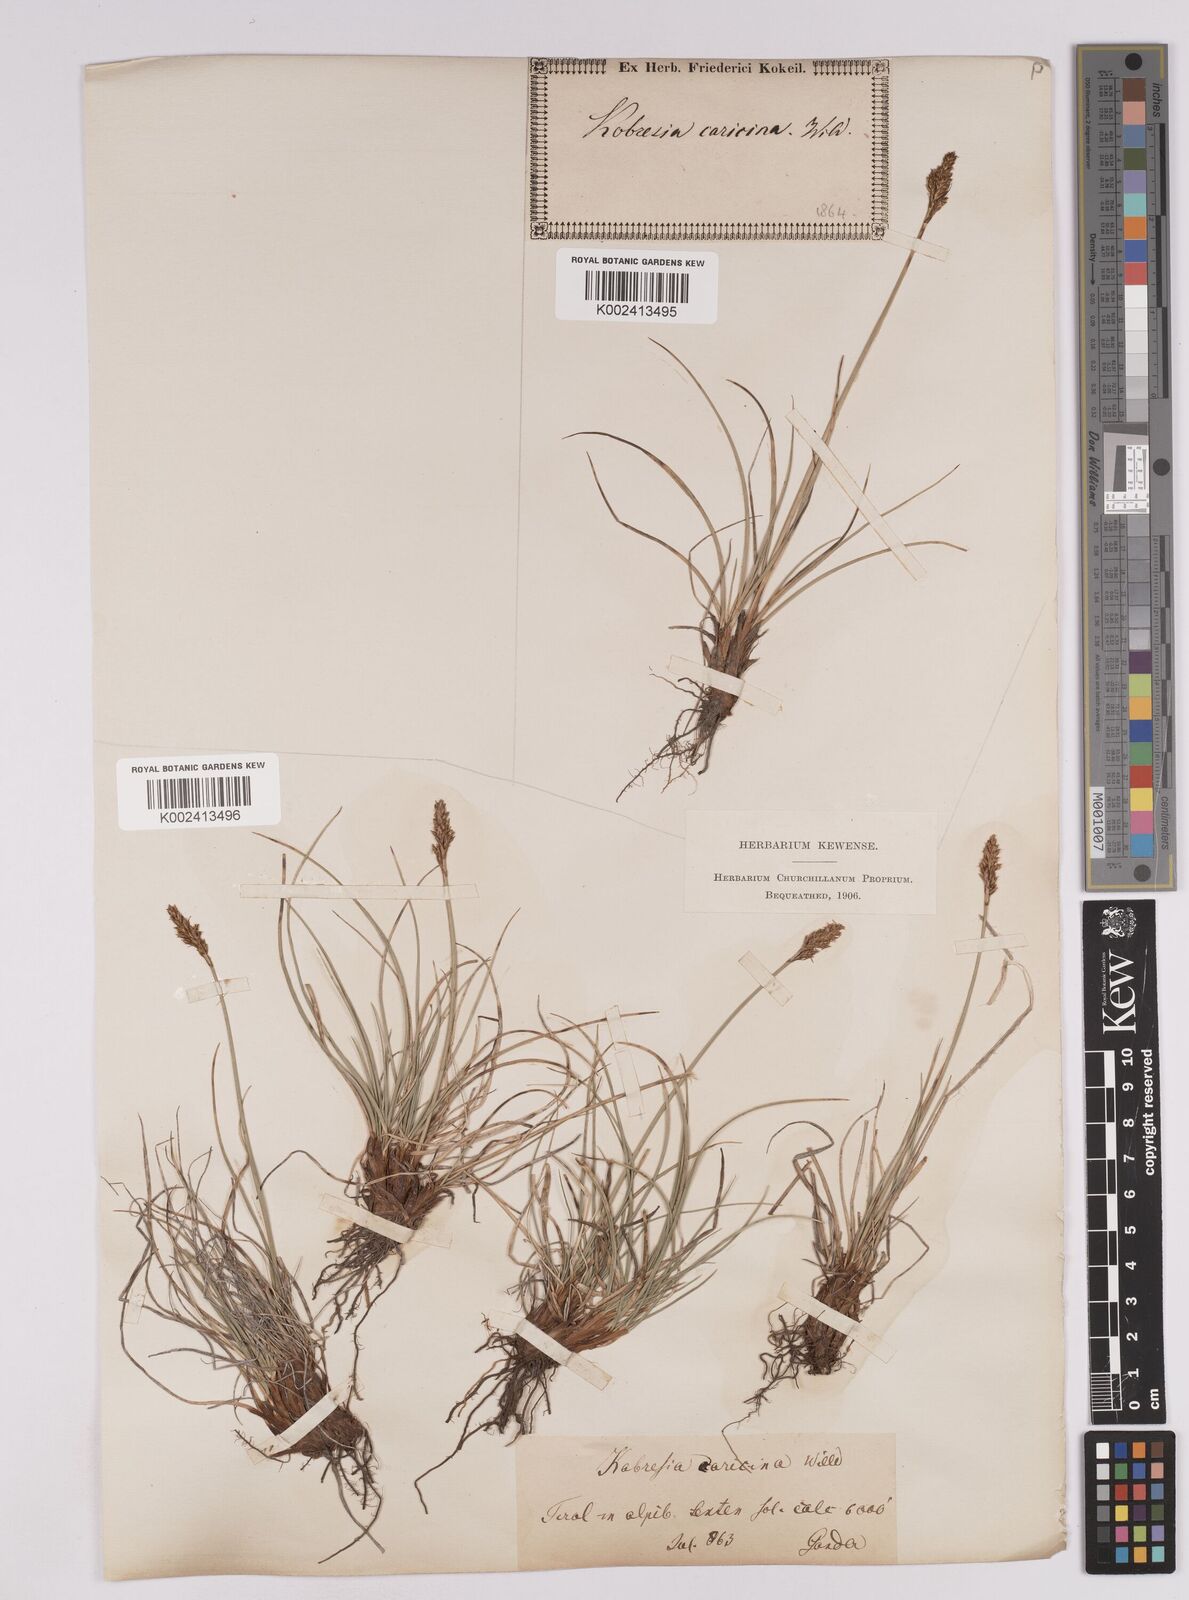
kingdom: Plantae
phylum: Tracheophyta
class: Liliopsida
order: Poales
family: Cyperaceae
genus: Carex
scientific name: Carex simpliciuscula
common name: Simple bog sedge
